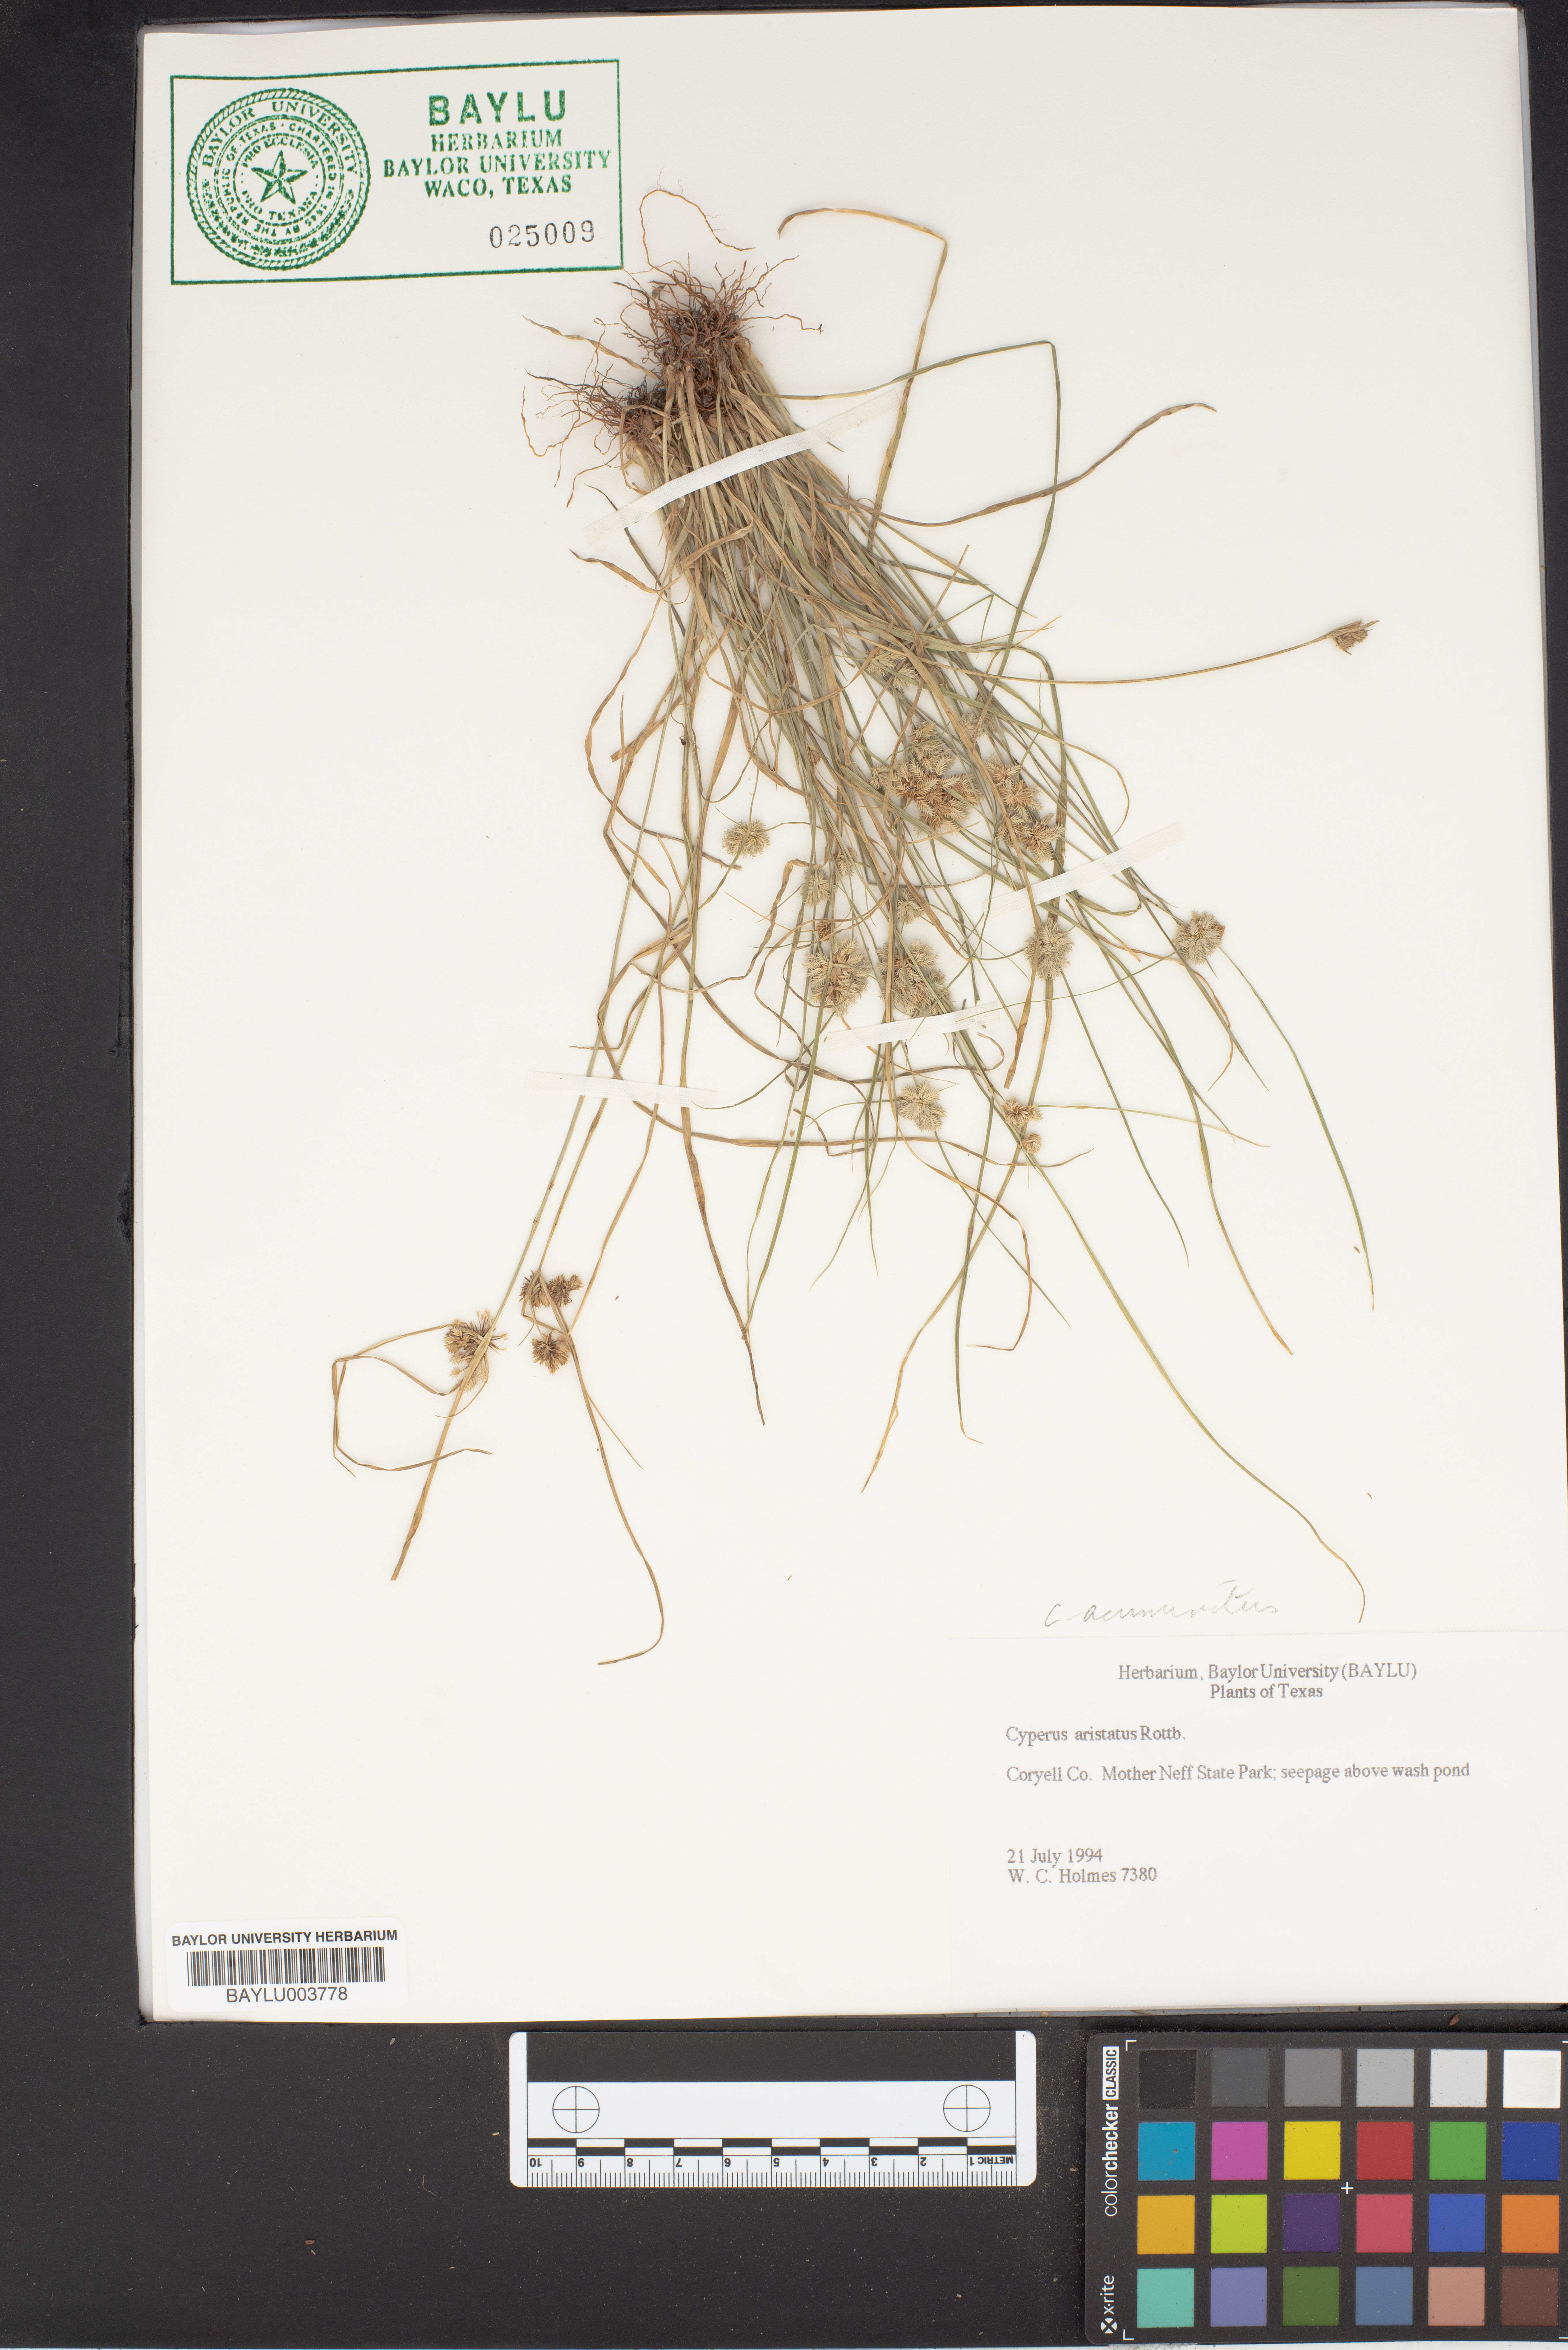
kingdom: Plantae
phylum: Tracheophyta
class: Liliopsida
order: Poales
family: Cyperaceae
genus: Cyperus
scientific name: Cyperus squarrosus
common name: Awned cyperus
